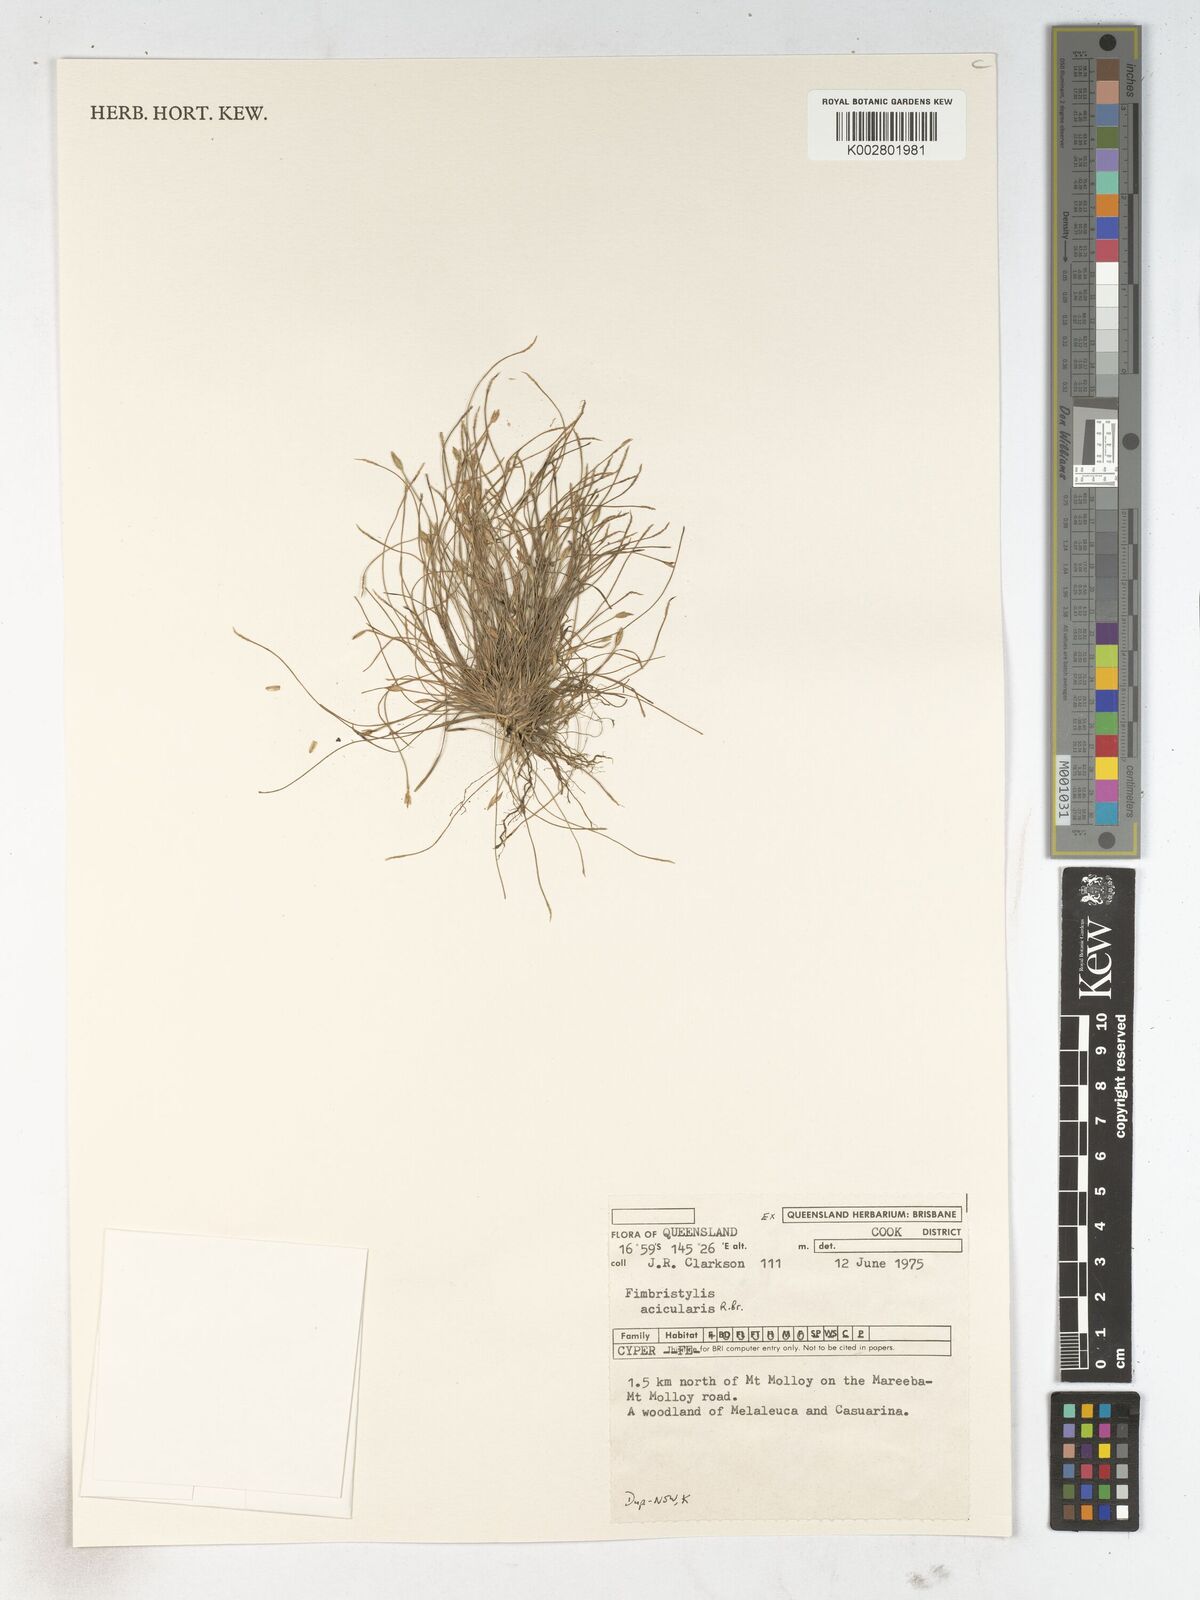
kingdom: Plantae
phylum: Tracheophyta
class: Liliopsida
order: Poales
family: Cyperaceae
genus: Fimbristylis
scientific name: Fimbristylis acicularis
